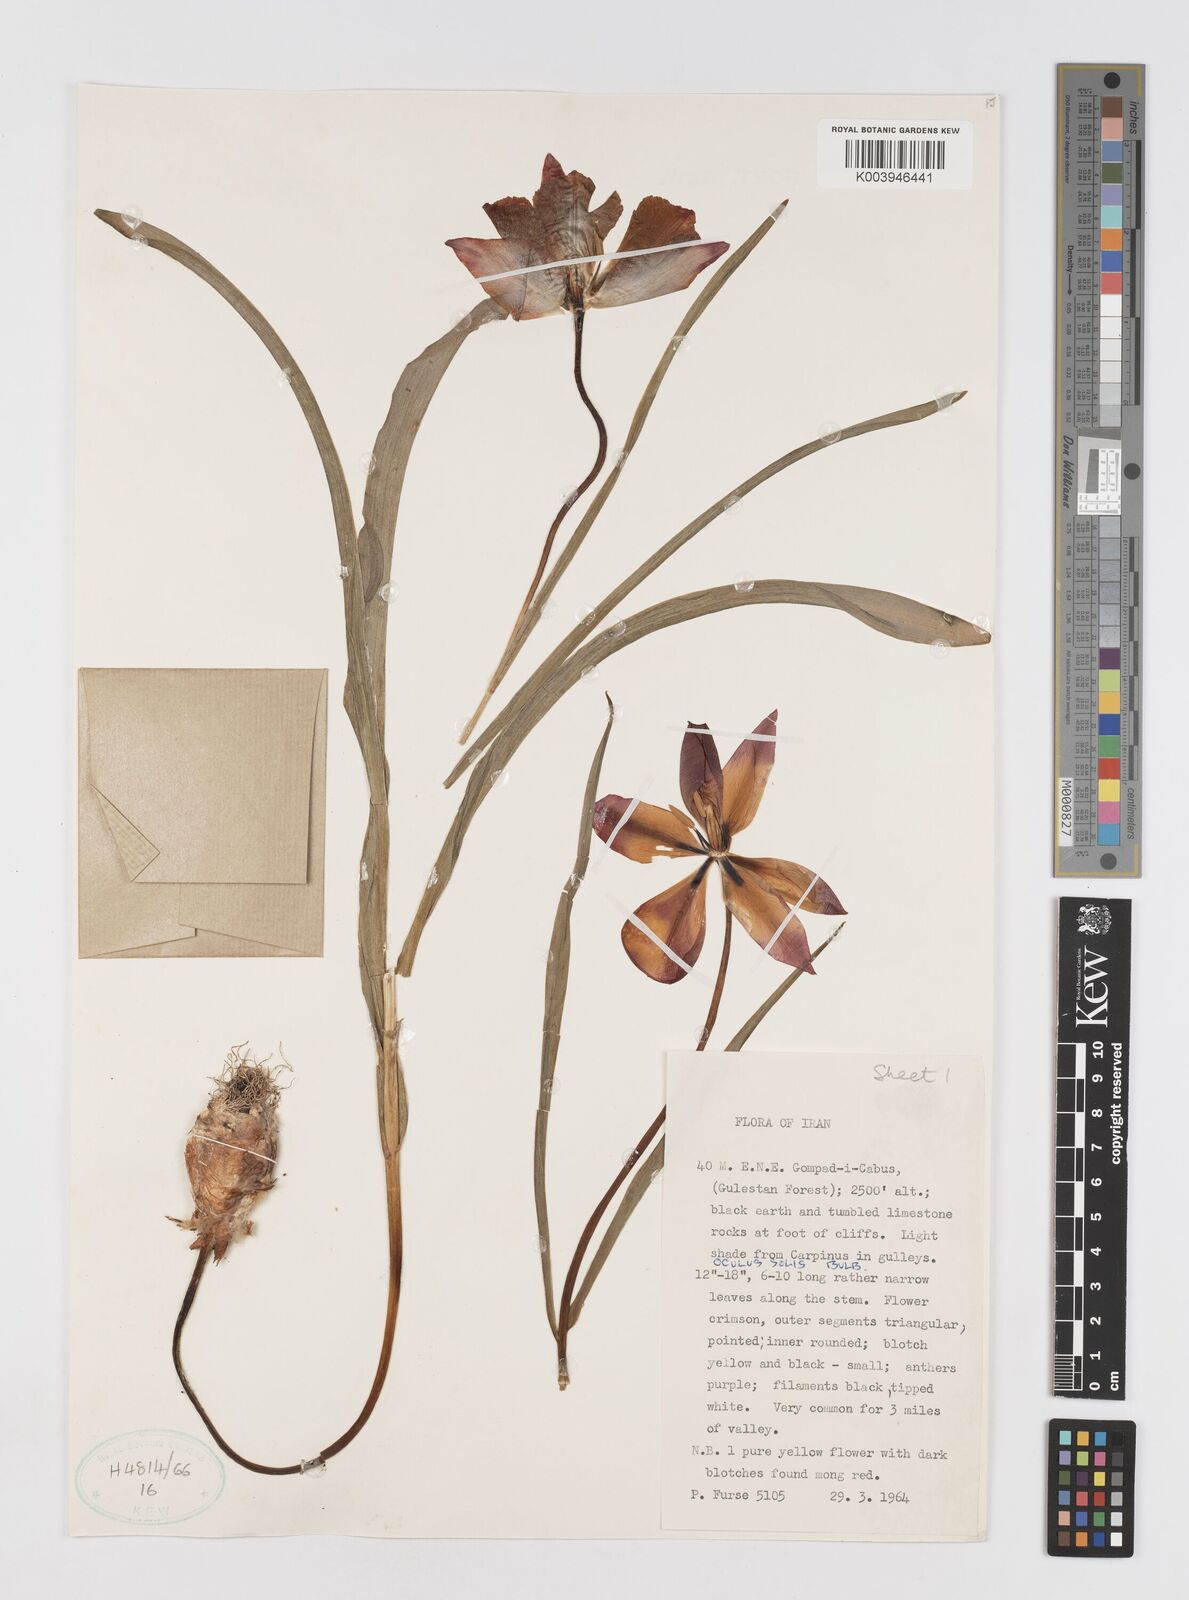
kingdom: Plantae
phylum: Tracheophyta
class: Liliopsida
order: Liliales
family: Liliaceae
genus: Tulipa
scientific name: Tulipa
